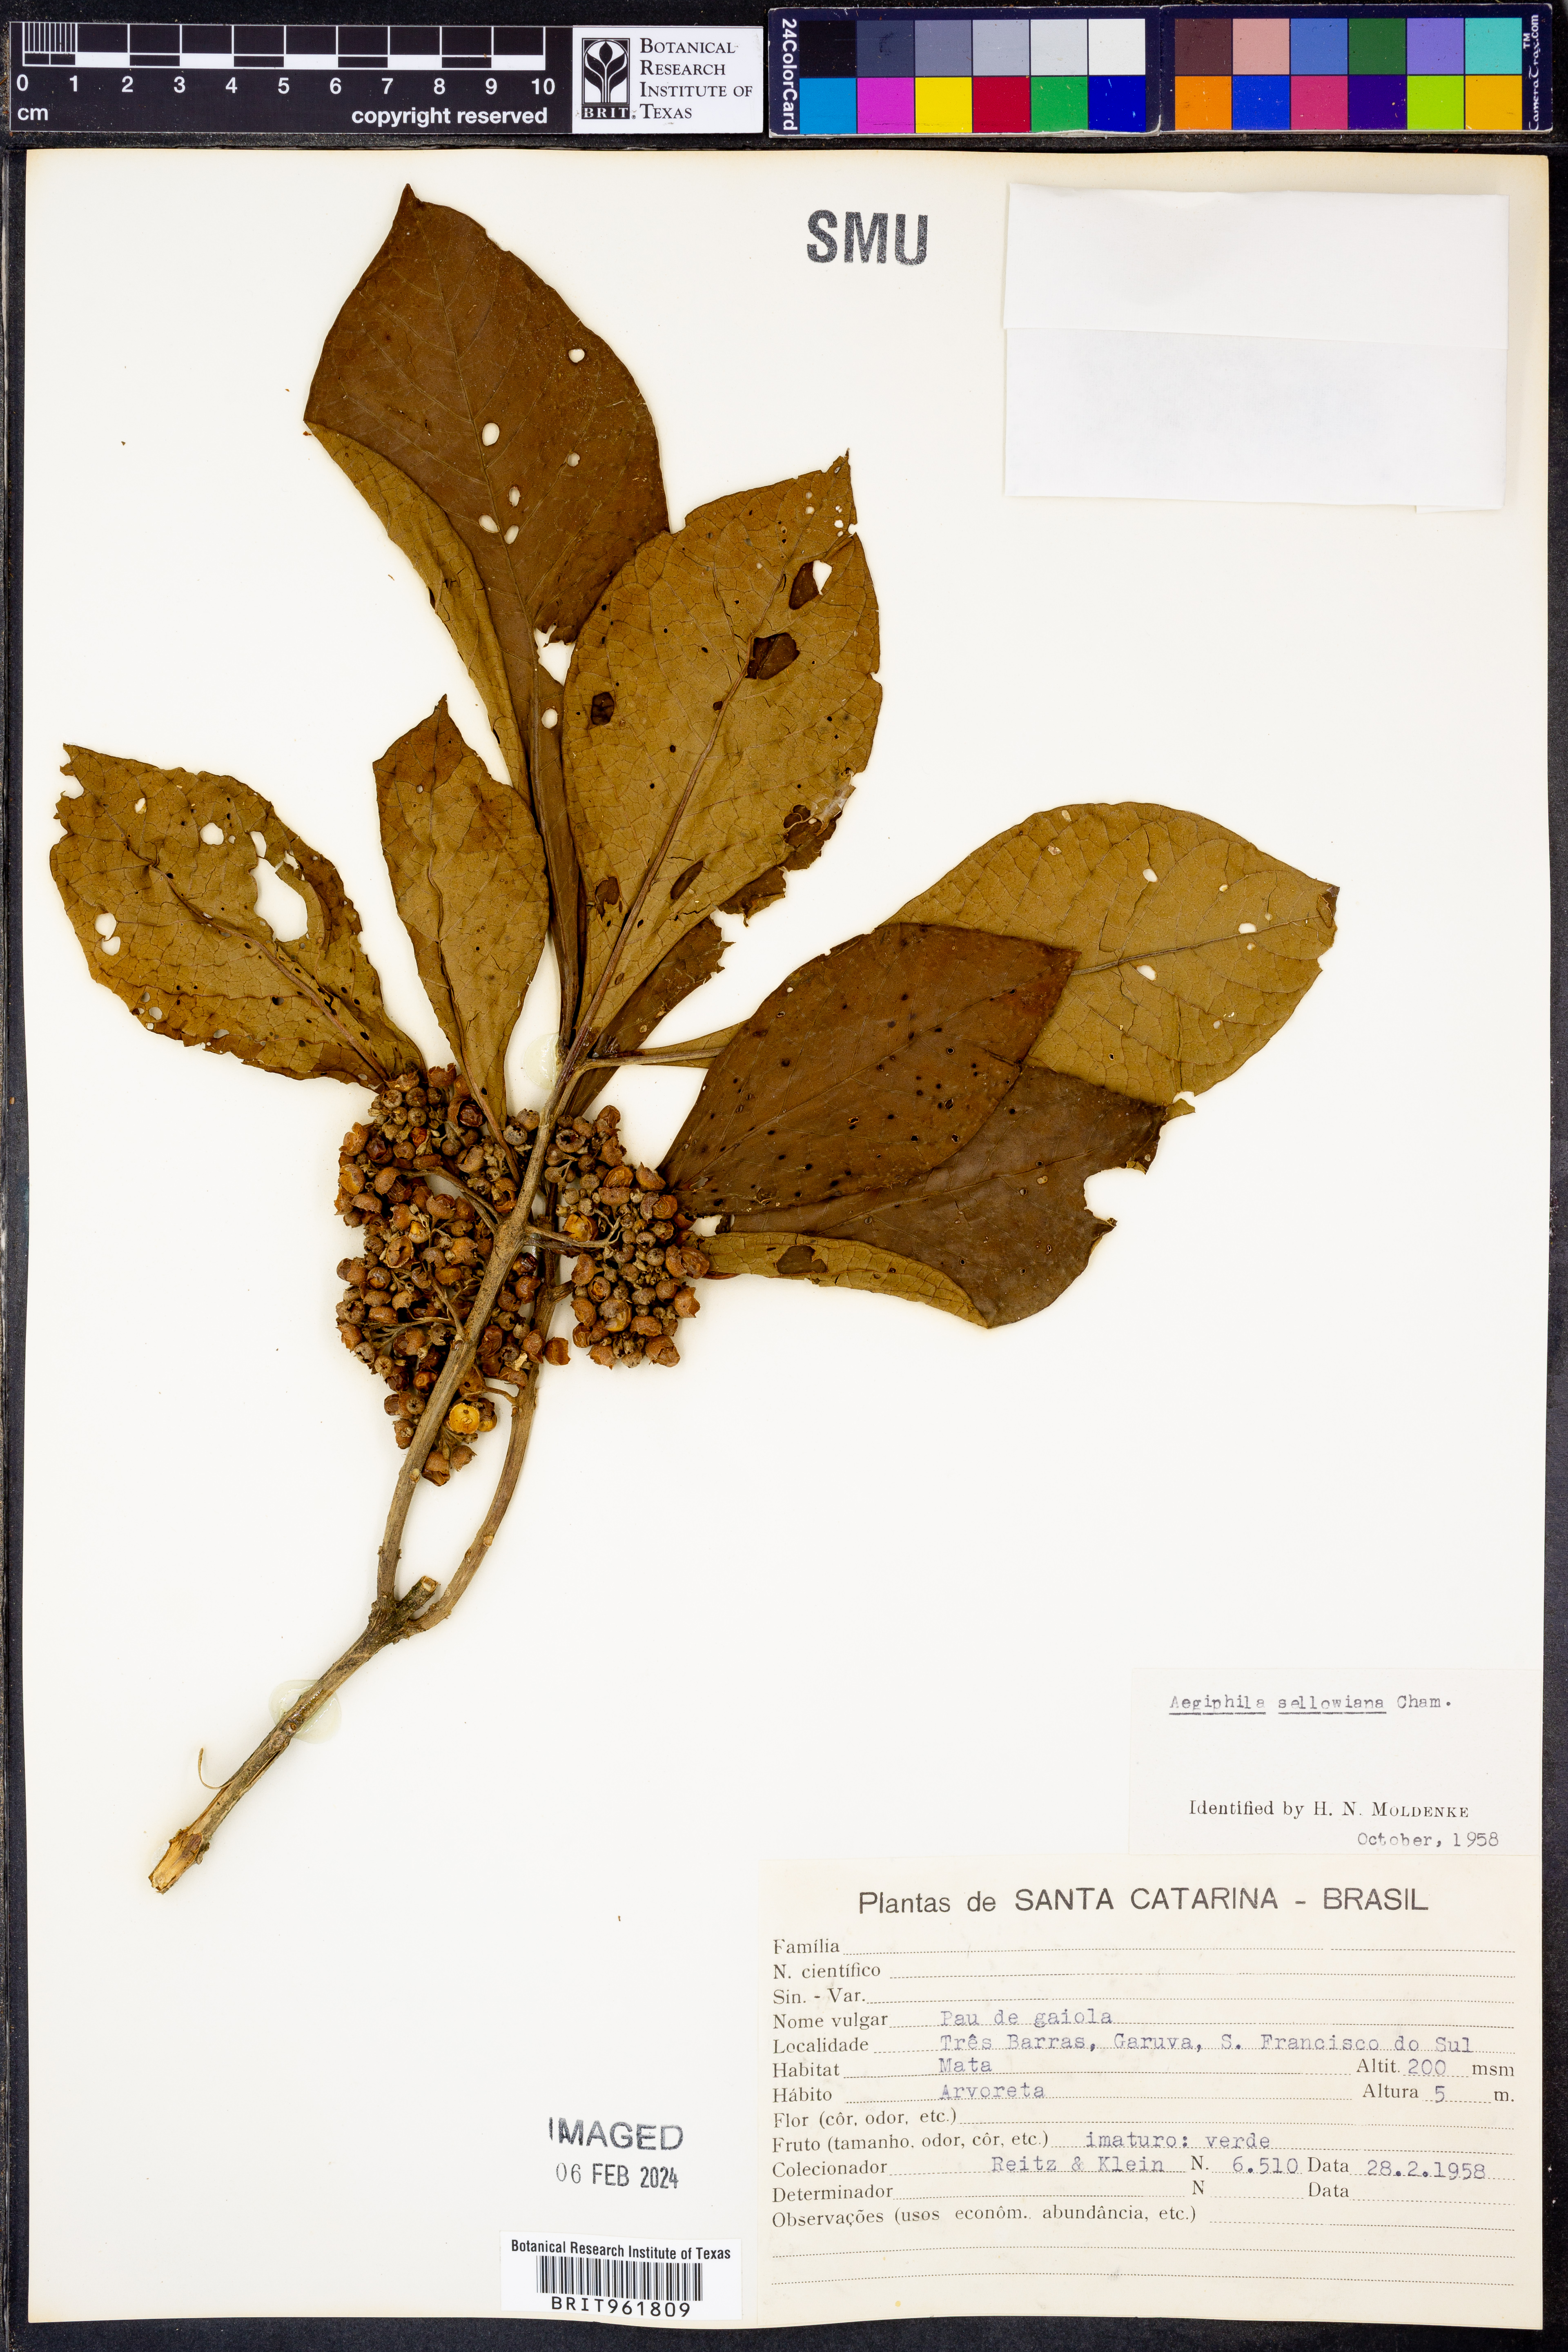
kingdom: Plantae
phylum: Tracheophyta
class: Magnoliopsida
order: Lamiales
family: Lamiaceae
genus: Aegiphila
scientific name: Aegiphila
